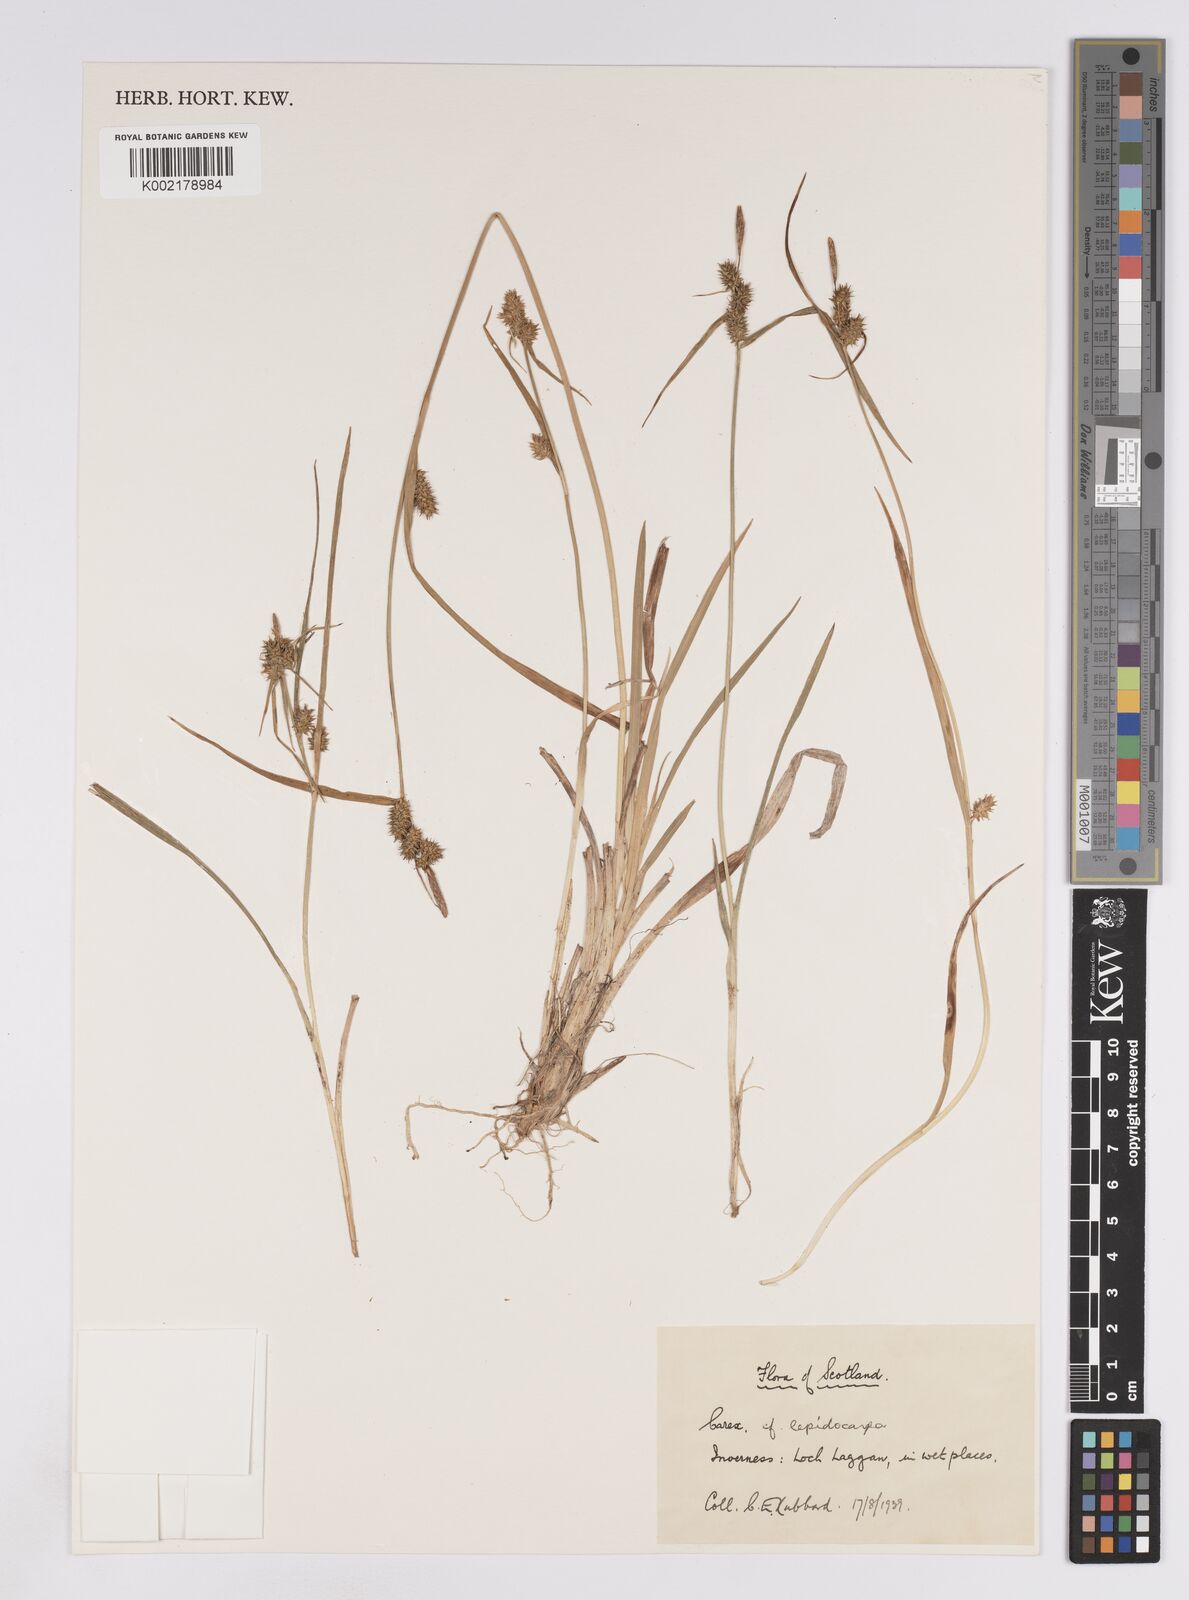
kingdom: Plantae
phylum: Tracheophyta
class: Liliopsida
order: Poales
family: Cyperaceae
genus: Carex
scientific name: Carex lepidocarpa
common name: Long-stalked yellow-sedge
